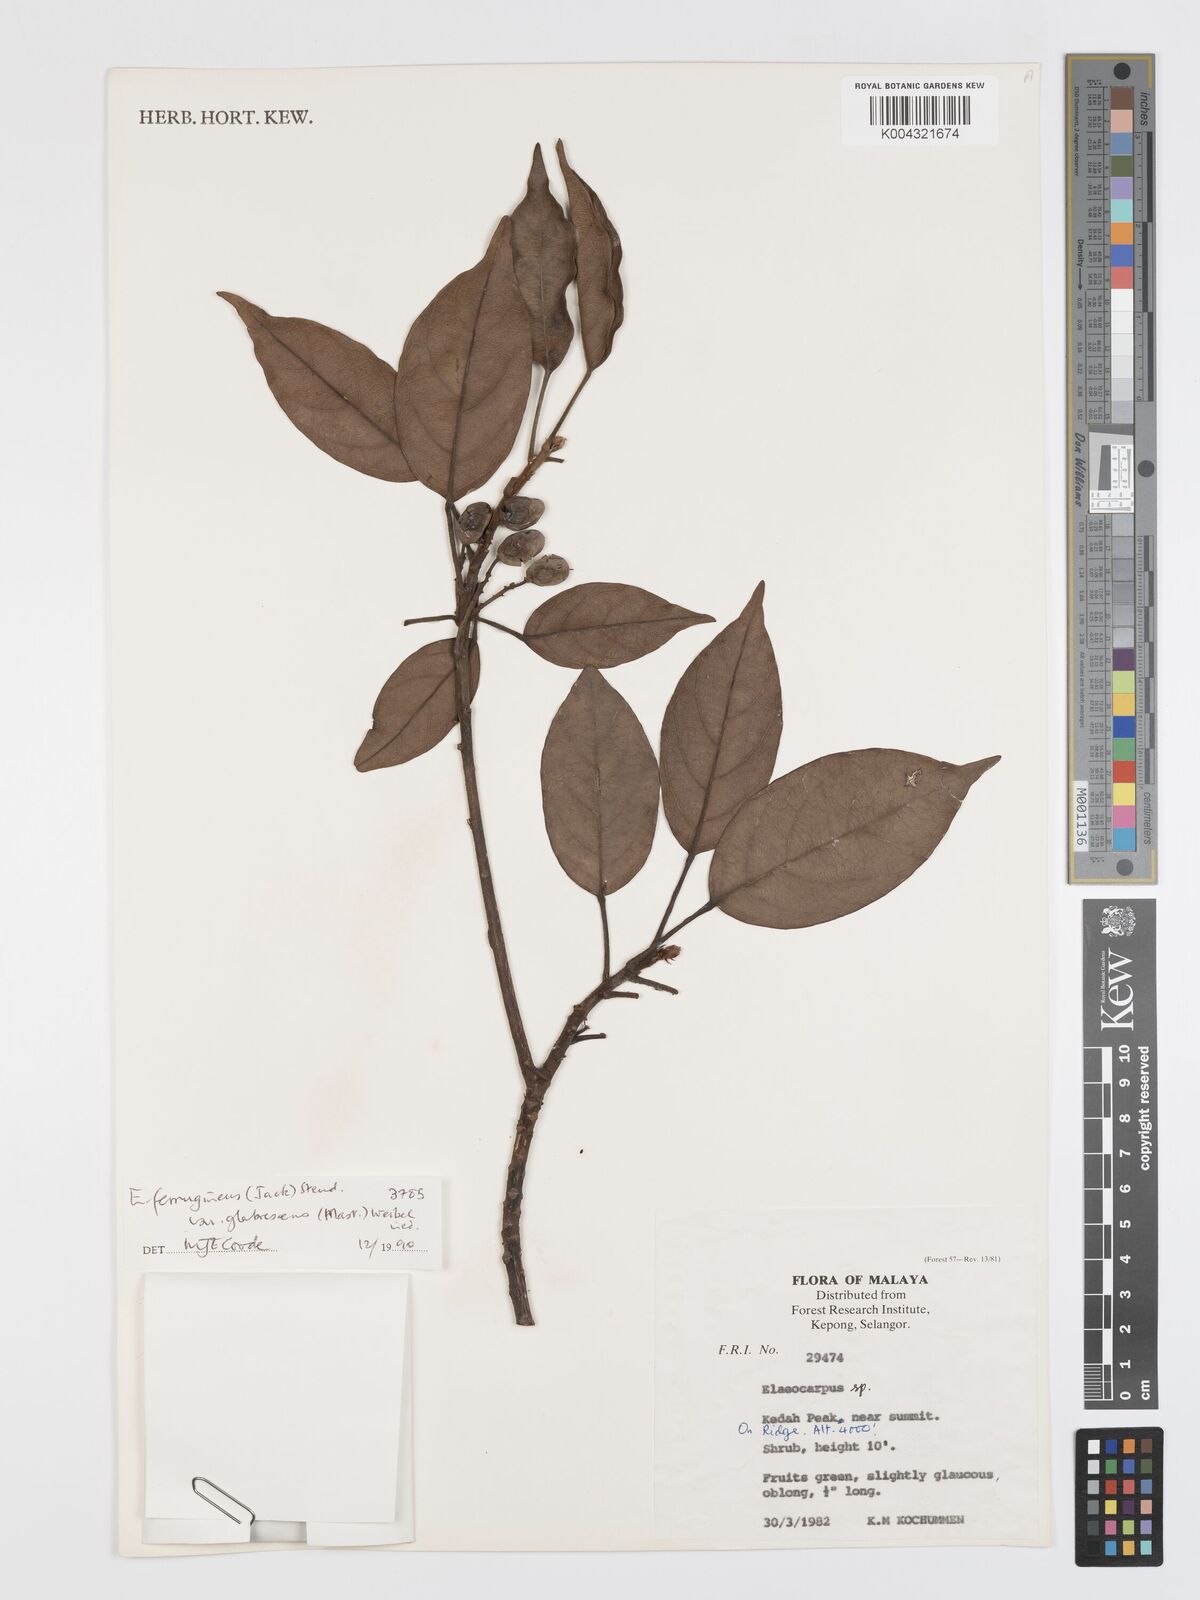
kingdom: Plantae
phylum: Tracheophyta
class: Magnoliopsida
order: Oxalidales
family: Elaeocarpaceae
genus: Elaeocarpus
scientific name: Elaeocarpus ferrugineus
